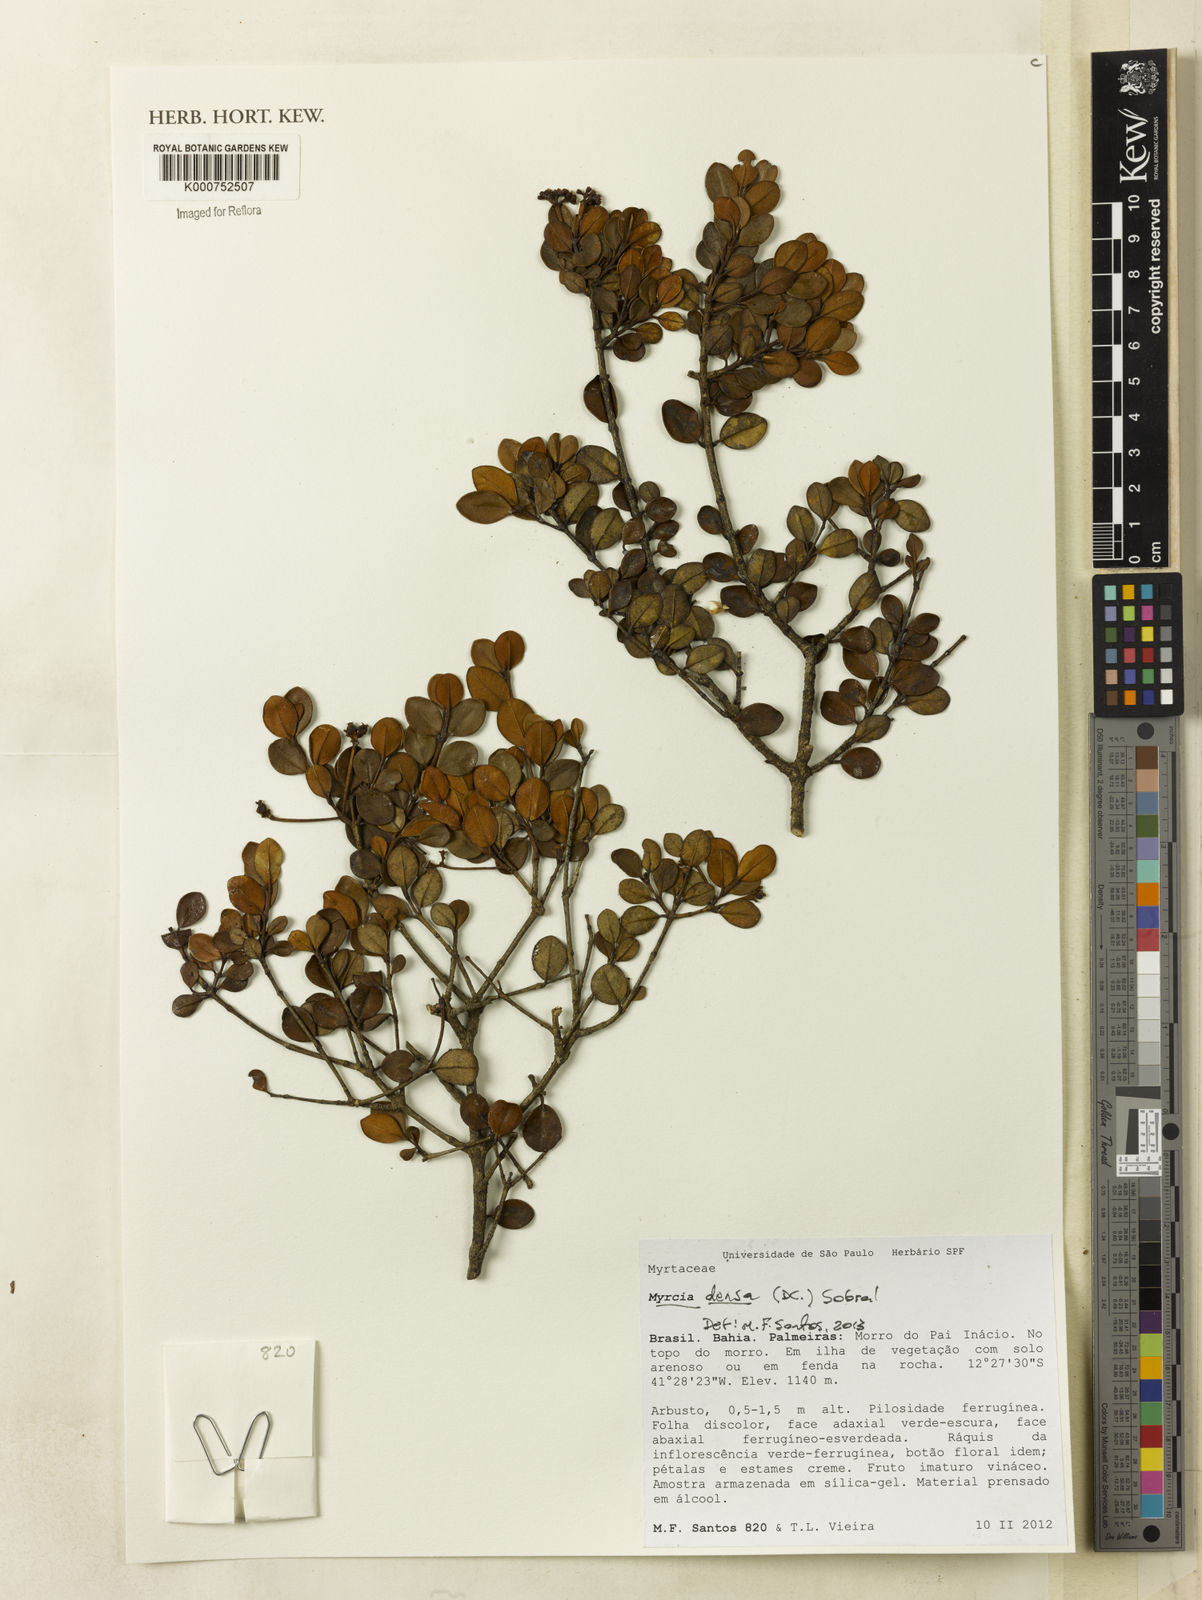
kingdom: Plantae
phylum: Tracheophyta
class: Magnoliopsida
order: Myrtales
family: Myrtaceae
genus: Myrcia
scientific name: Myrcia densa
